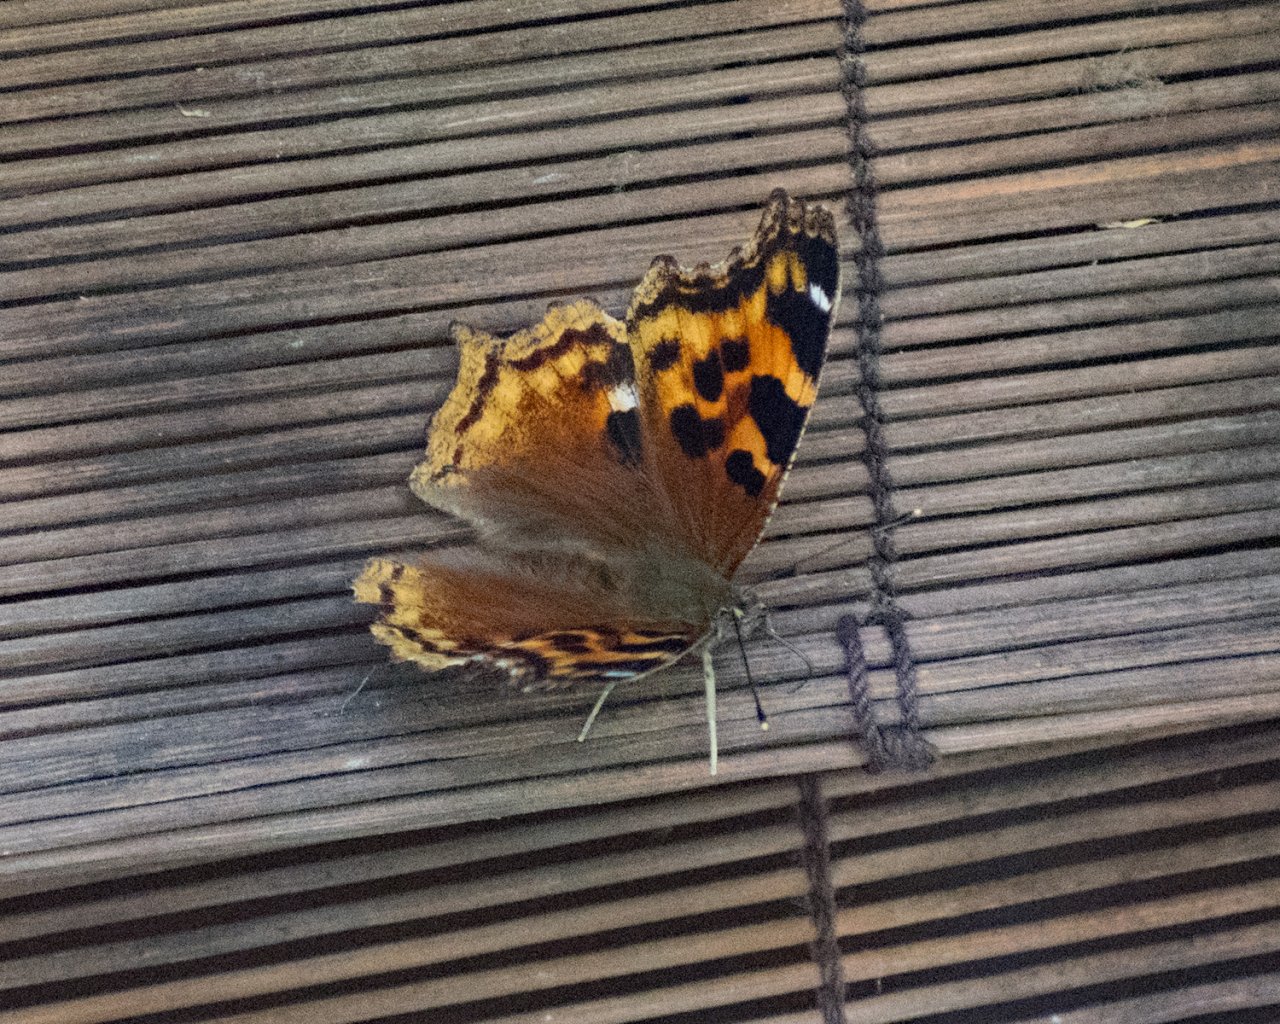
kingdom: Animalia
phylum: Arthropoda
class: Insecta
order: Lepidoptera
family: Nymphalidae
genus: Polygonia
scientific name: Polygonia vaualbum
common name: Compton Tortoiseshell
